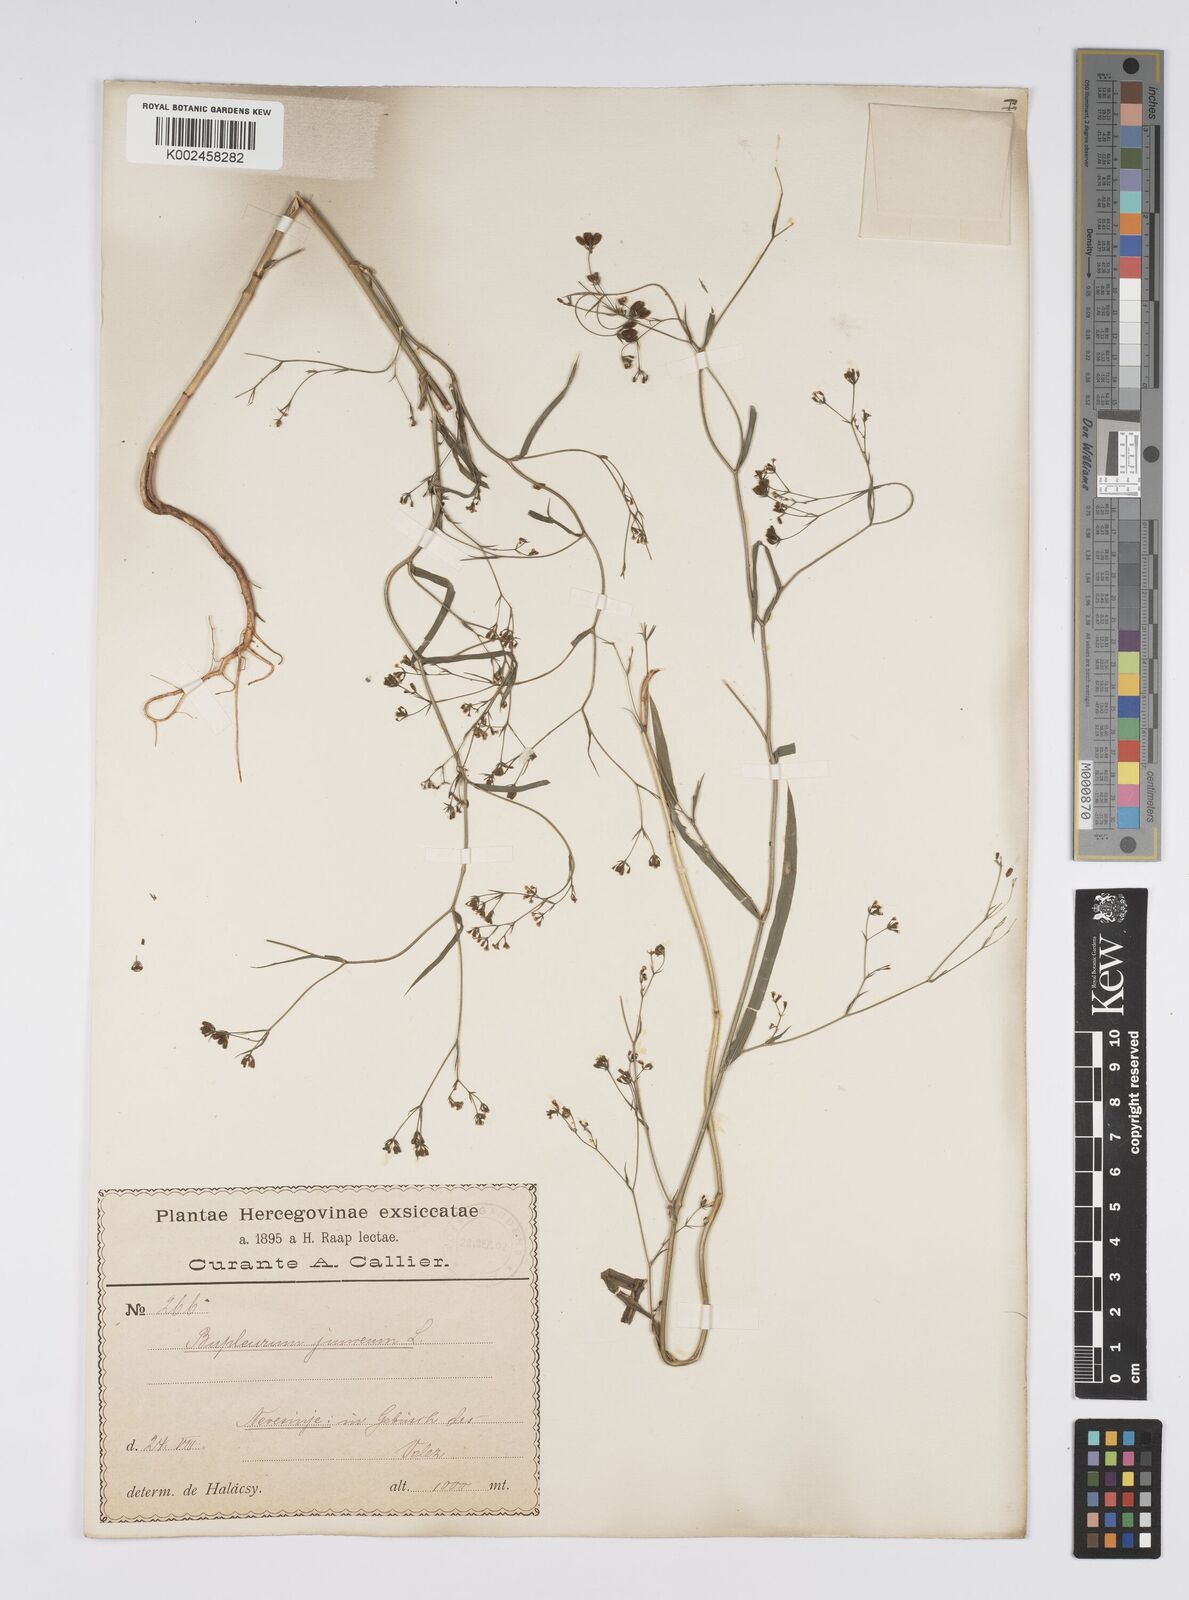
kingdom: Plantae
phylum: Tracheophyta
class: Magnoliopsida
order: Apiales
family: Apiaceae
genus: Bupleurum
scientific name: Bupleurum praealtum
